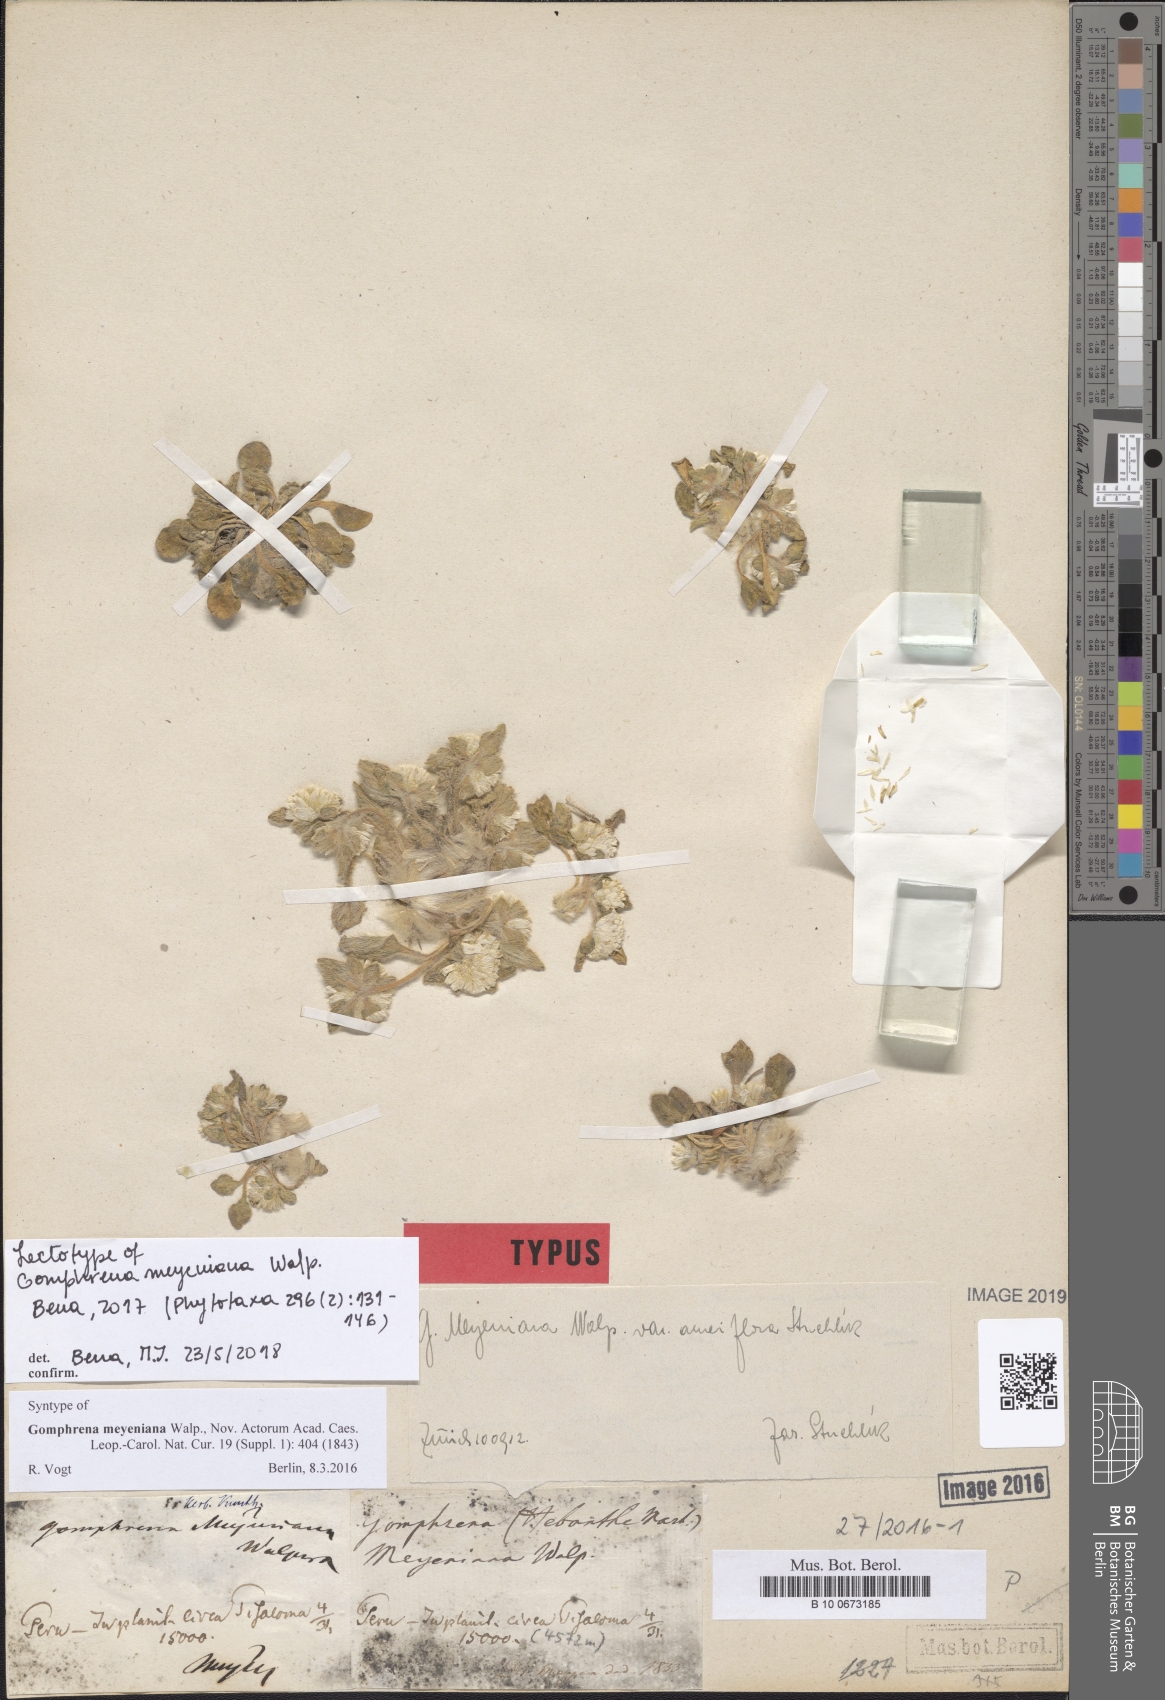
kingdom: Plantae
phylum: Tracheophyta
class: Magnoliopsida
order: Caryophyllales
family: Amaranthaceae
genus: Gomphrena
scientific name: Gomphrena meyeniana
